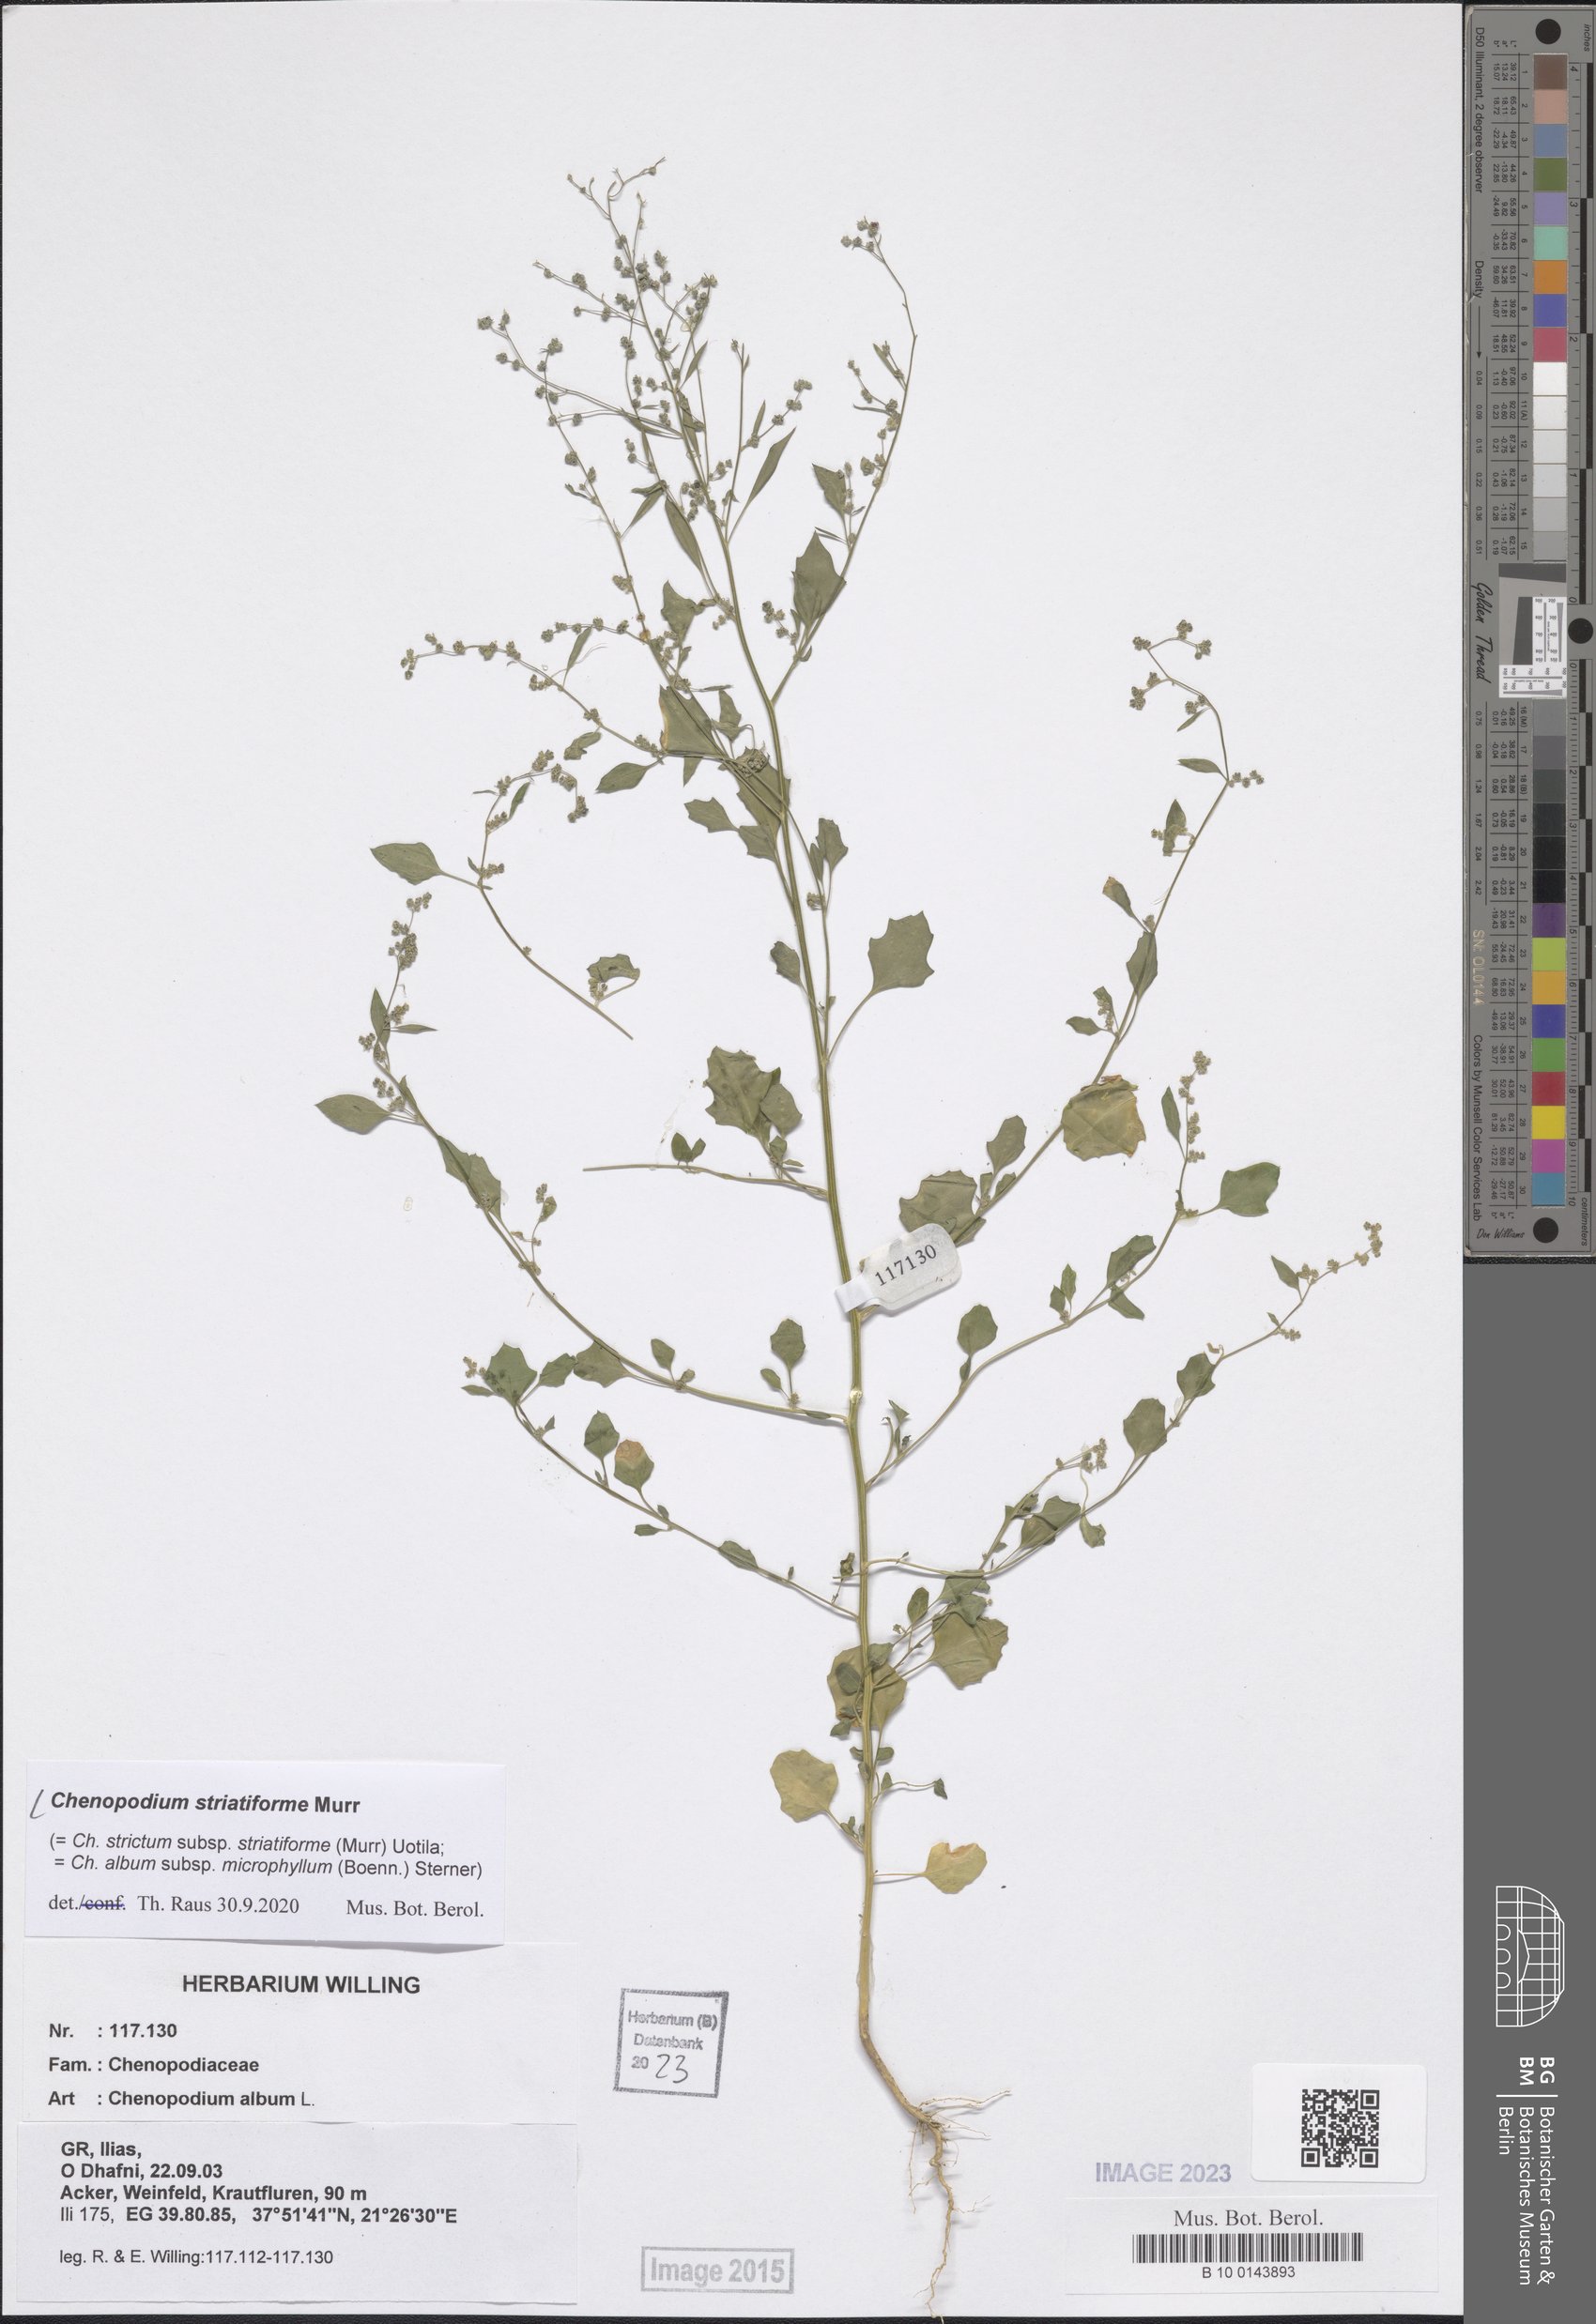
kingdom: Plantae
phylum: Tracheophyta
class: Magnoliopsida
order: Caryophyllales
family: Amaranthaceae
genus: Chenopodium
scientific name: Chenopodium striatiforme
